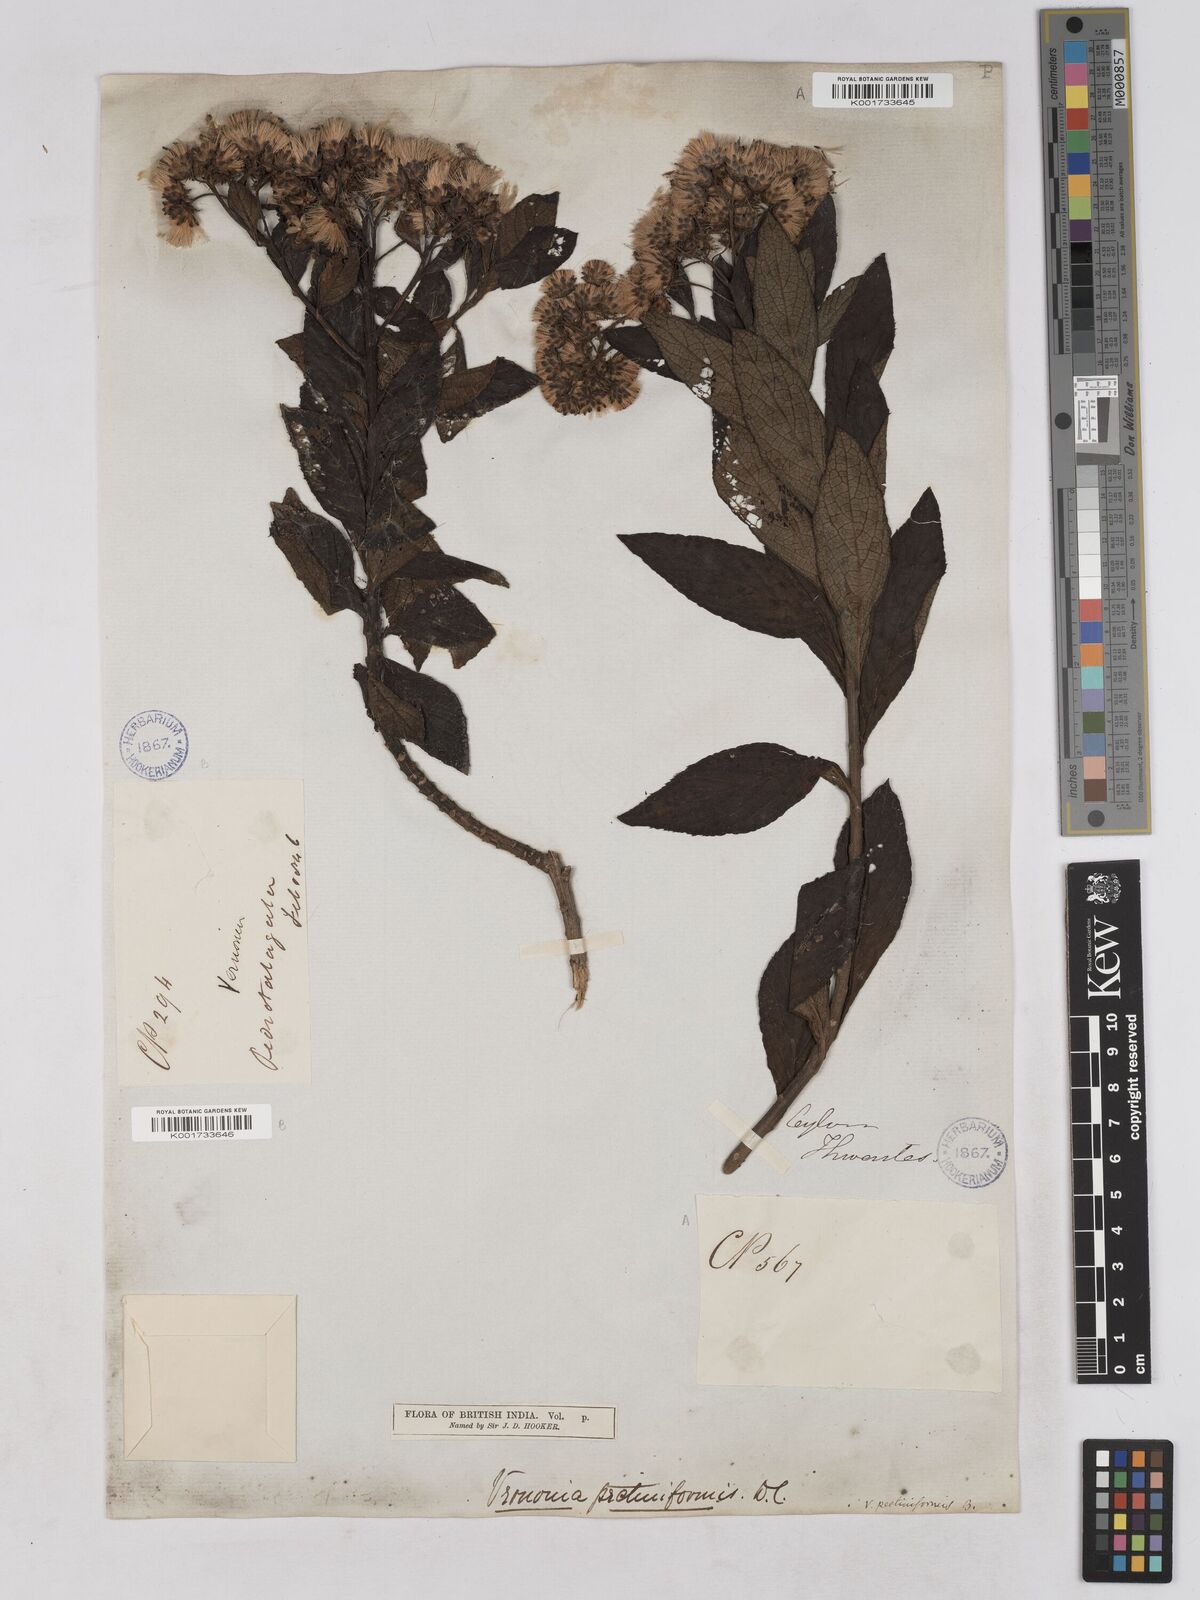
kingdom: Plantae
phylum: Tracheophyta
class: Magnoliopsida
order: Asterales
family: Asteraceae
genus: Gymnanthemum
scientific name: Gymnanthemum pectiniforme
